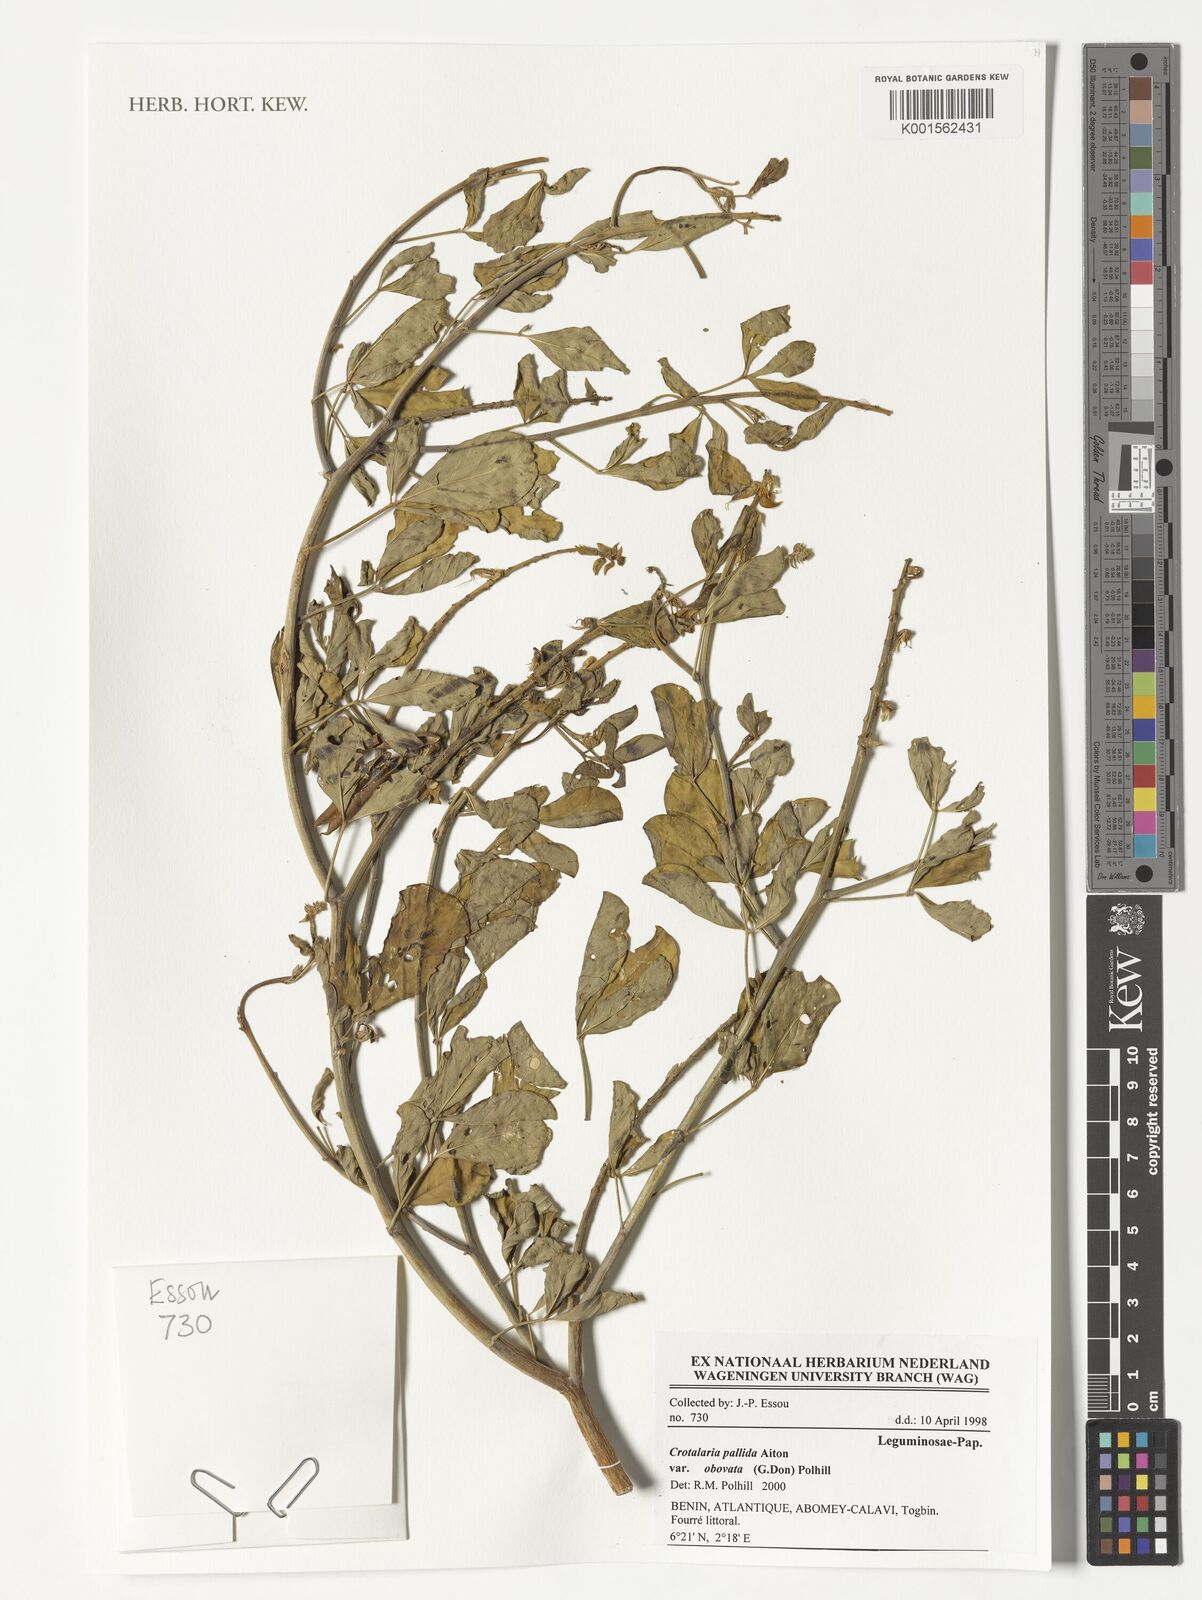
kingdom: Plantae
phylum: Tracheophyta
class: Magnoliopsida
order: Fabales
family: Fabaceae
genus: Crotalaria
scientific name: Crotalaria pallida
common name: Smooth rattlebox
